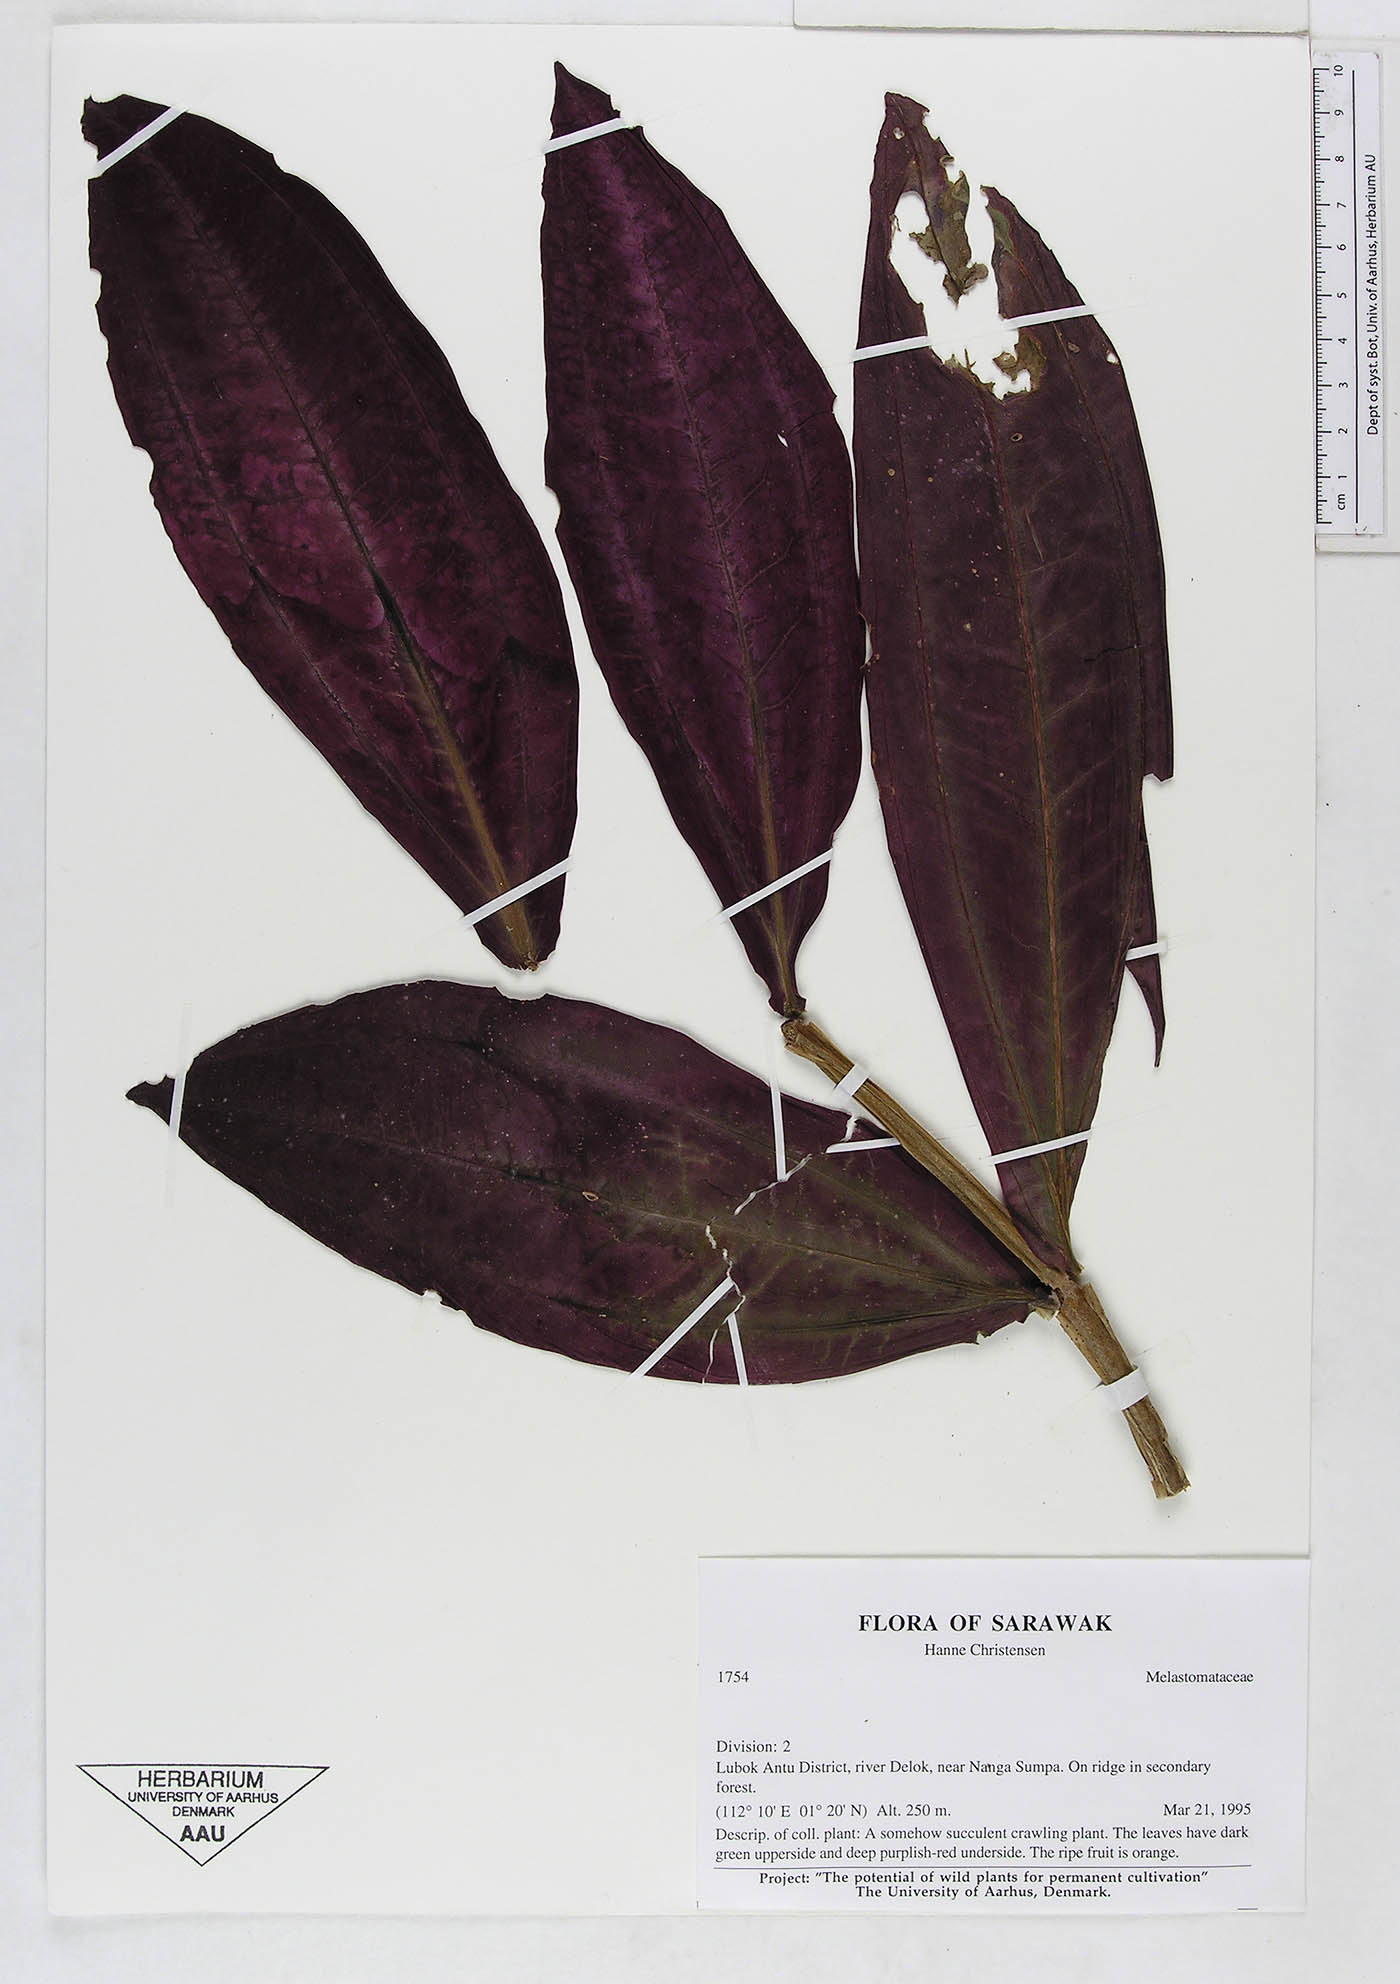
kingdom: Plantae
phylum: Tracheophyta
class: Magnoliopsida
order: Myrtales
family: Melastomataceae
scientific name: Melastomataceae
